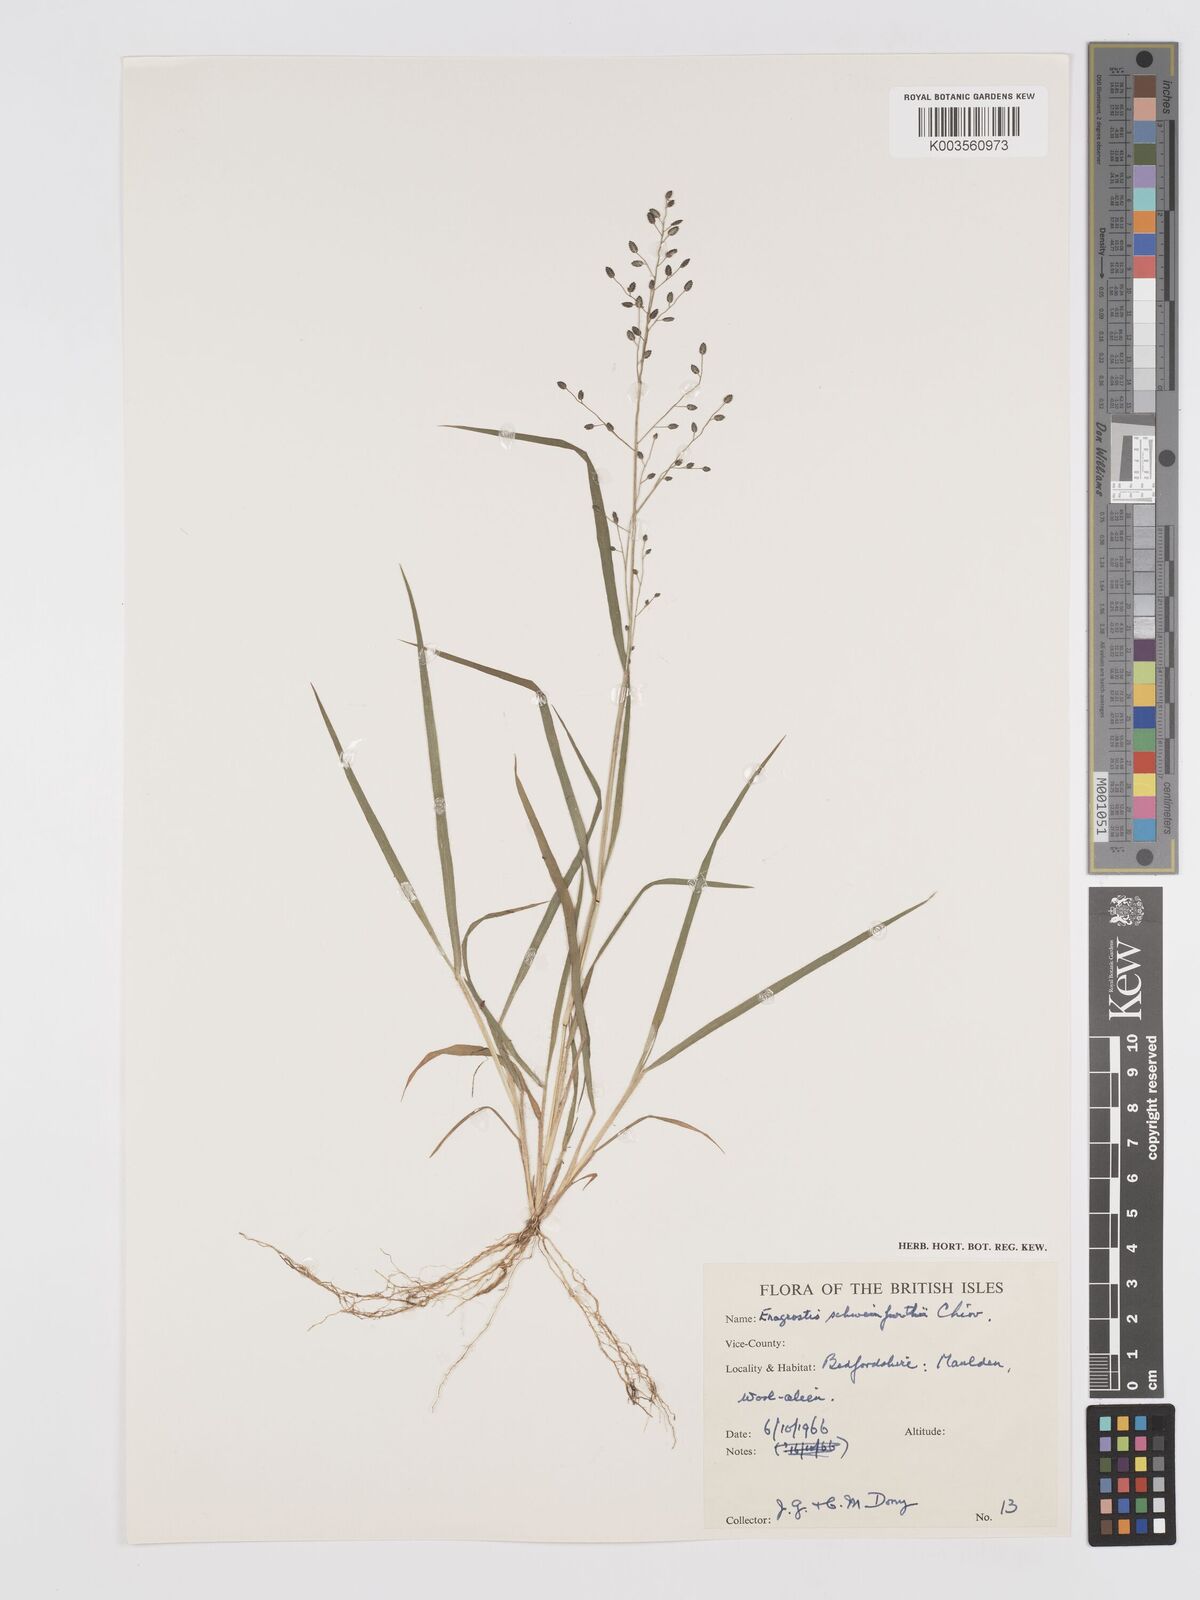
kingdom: Plantae
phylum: Tracheophyta
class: Liliopsida
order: Poales
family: Poaceae
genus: Eragrostis
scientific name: Eragrostis schweinfurthii
